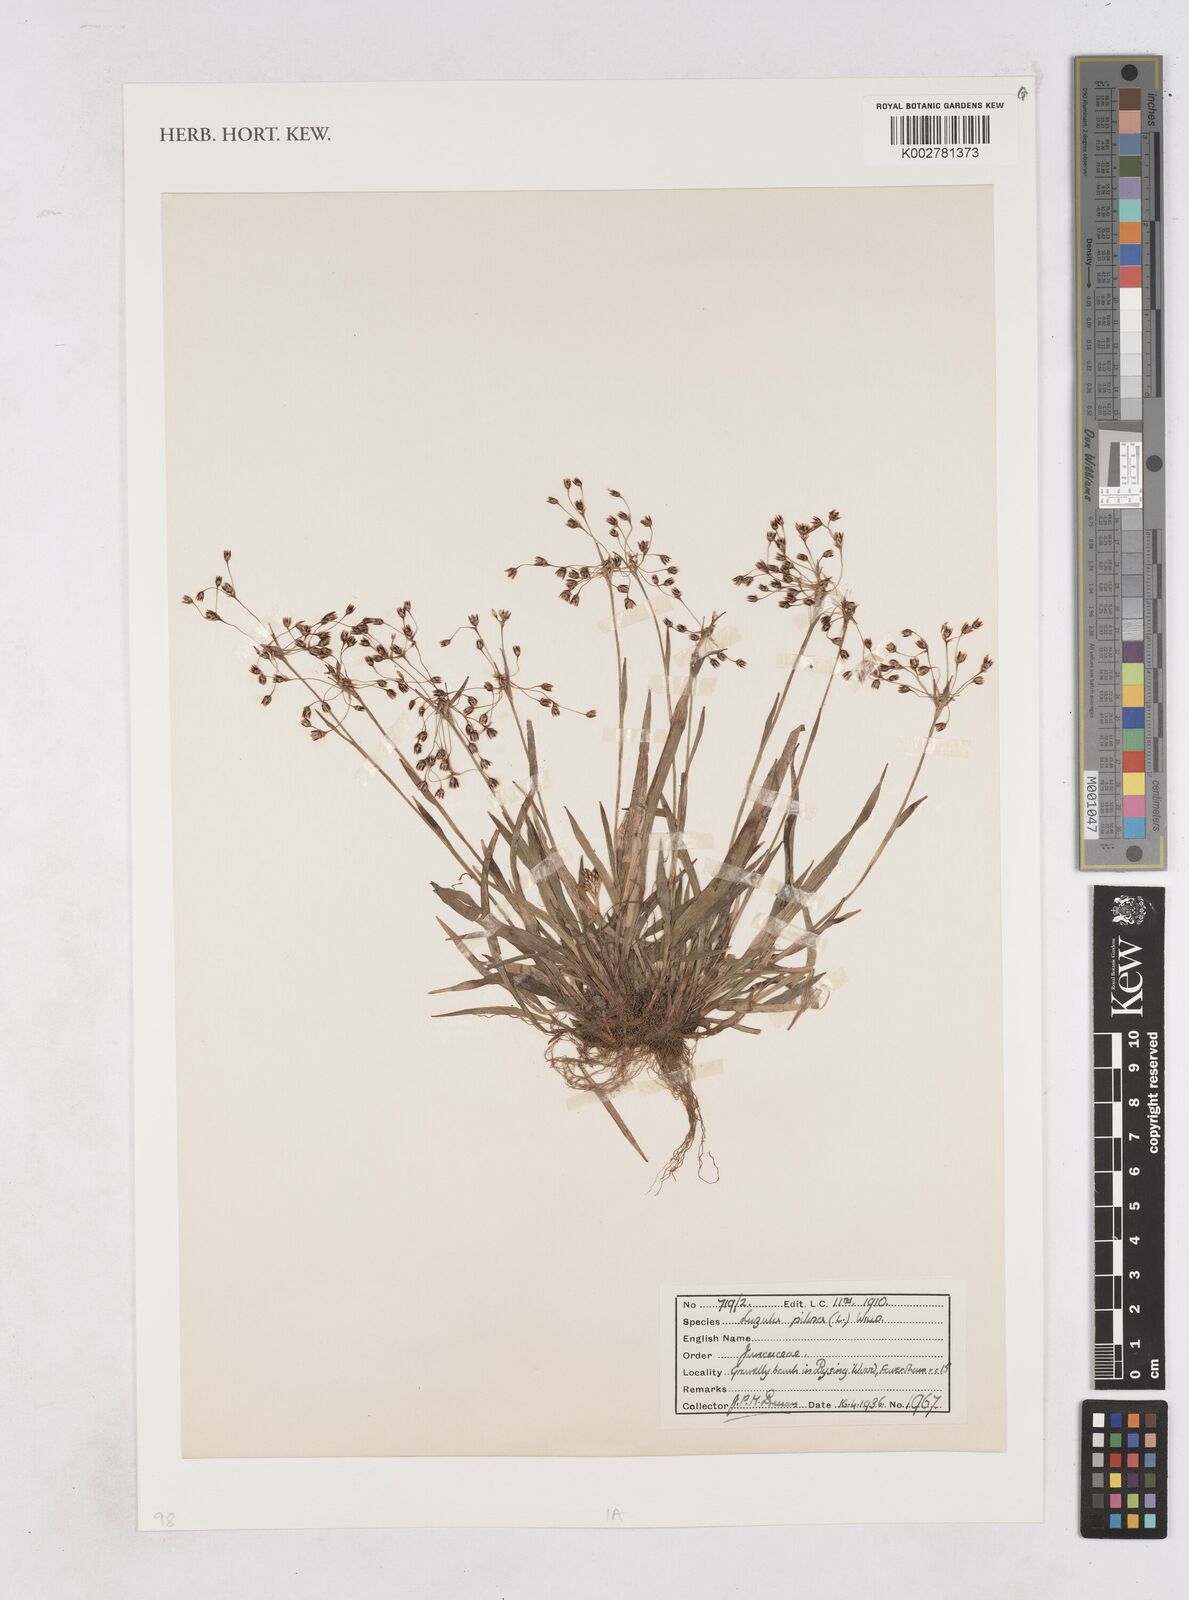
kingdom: Plantae
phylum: Tracheophyta
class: Liliopsida
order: Poales
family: Juncaceae
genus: Luzula
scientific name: Luzula pilosa
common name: Hairy wood-rush
